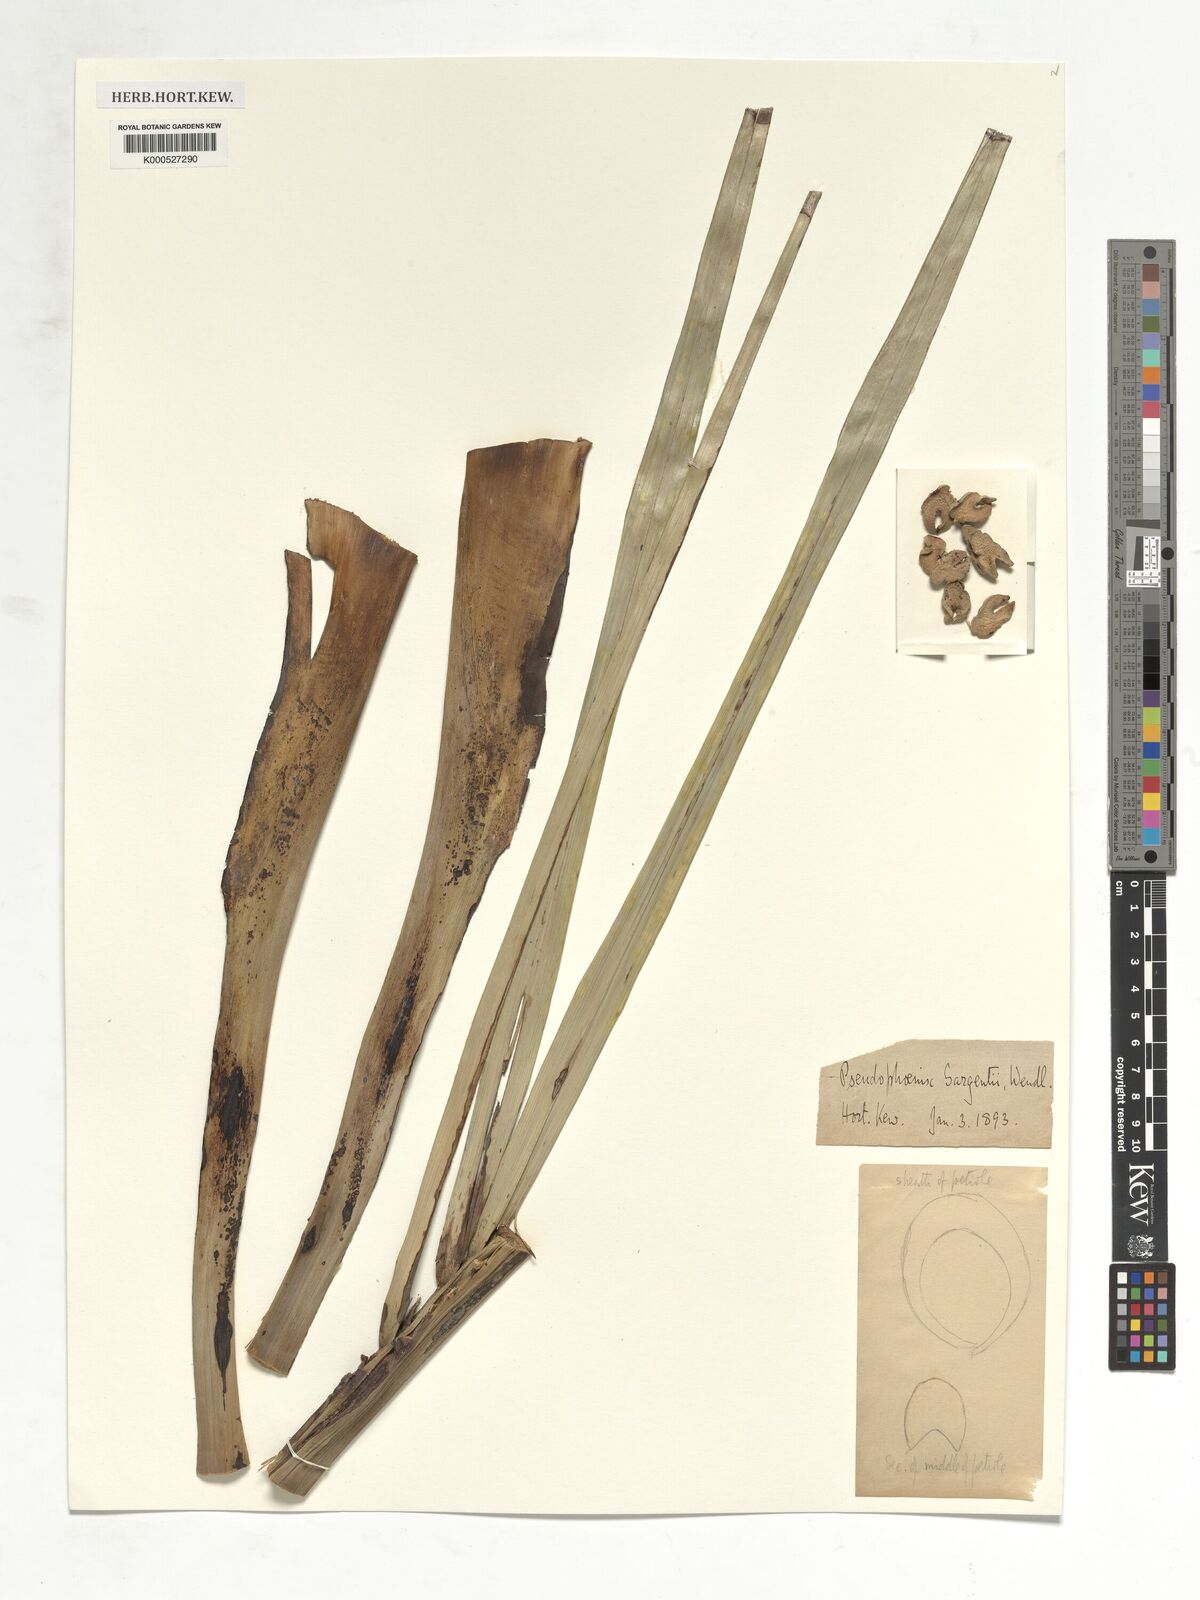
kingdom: Plantae
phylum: Tracheophyta
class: Liliopsida
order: Arecales
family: Arecaceae
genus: Pseudophoenix
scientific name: Pseudophoenix sargentii
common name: Buccaneer palm
